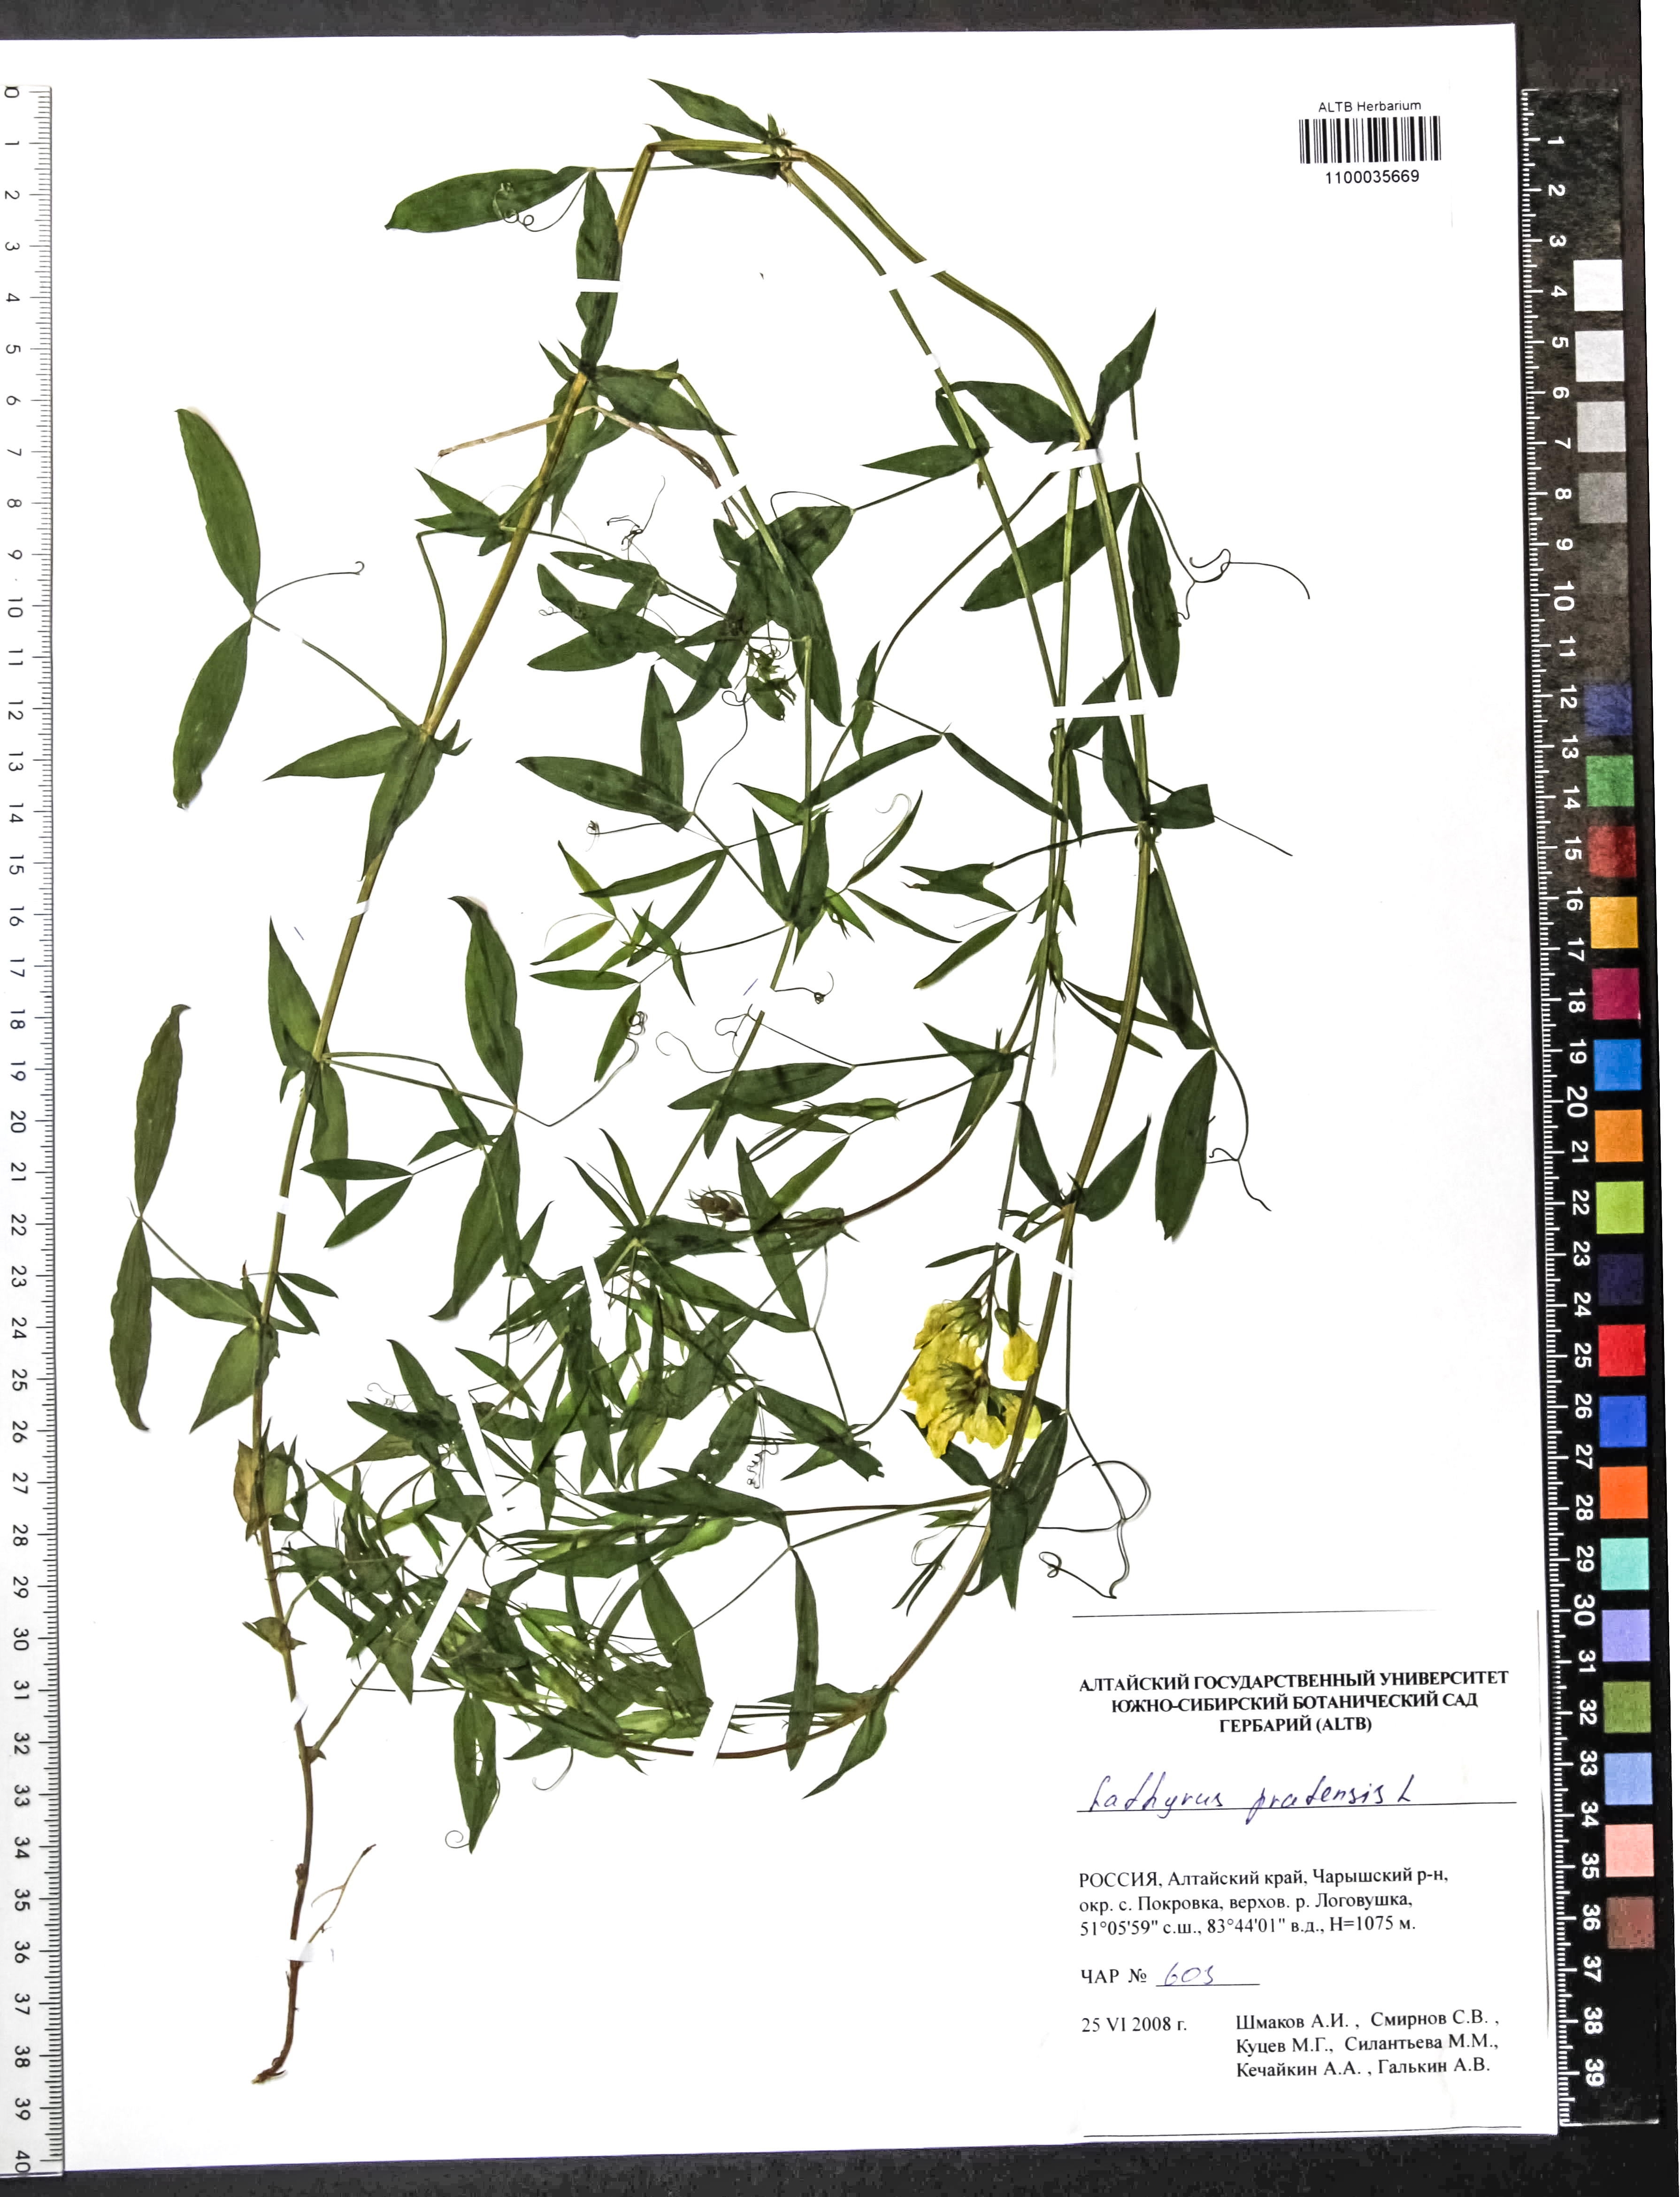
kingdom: Plantae
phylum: Tracheophyta
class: Magnoliopsida
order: Fabales
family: Fabaceae
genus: Lathyrus
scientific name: Lathyrus pratensis
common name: Meadow vetchling
